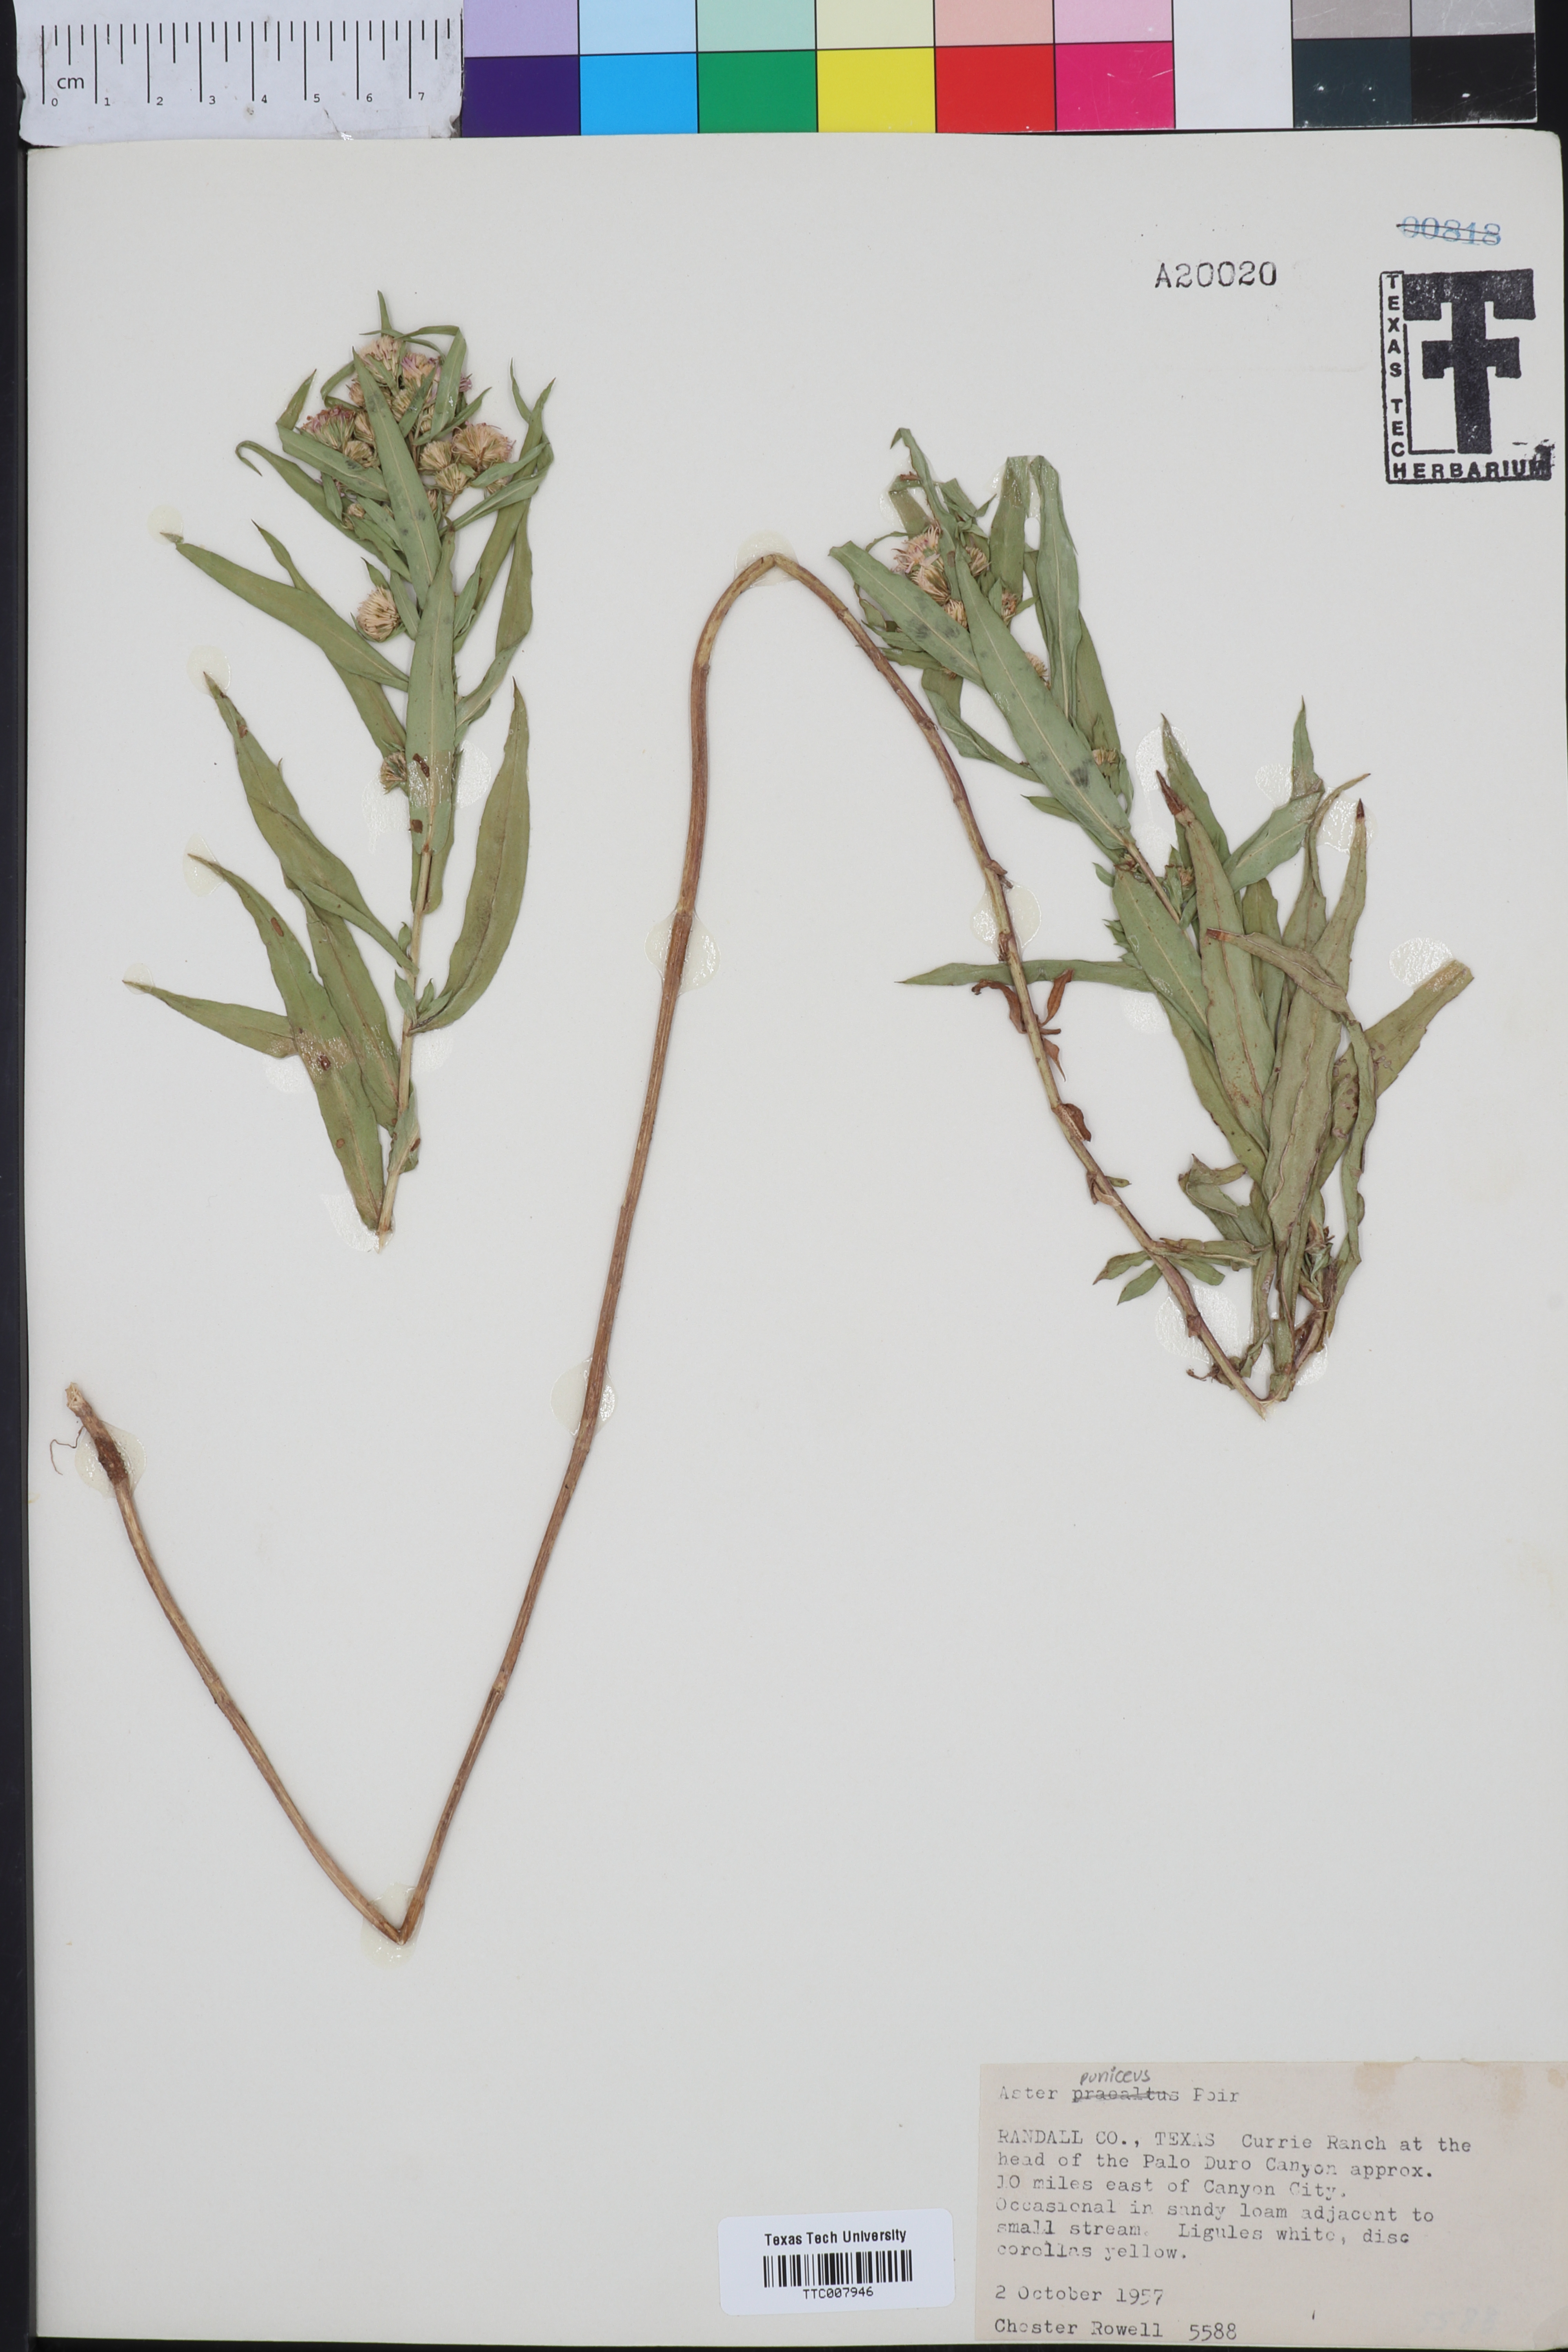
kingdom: Plantae
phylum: Tracheophyta
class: Magnoliopsida
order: Asterales
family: Asteraceae
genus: Symphyotrichum
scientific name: Symphyotrichum praealtum
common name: Willow aster
